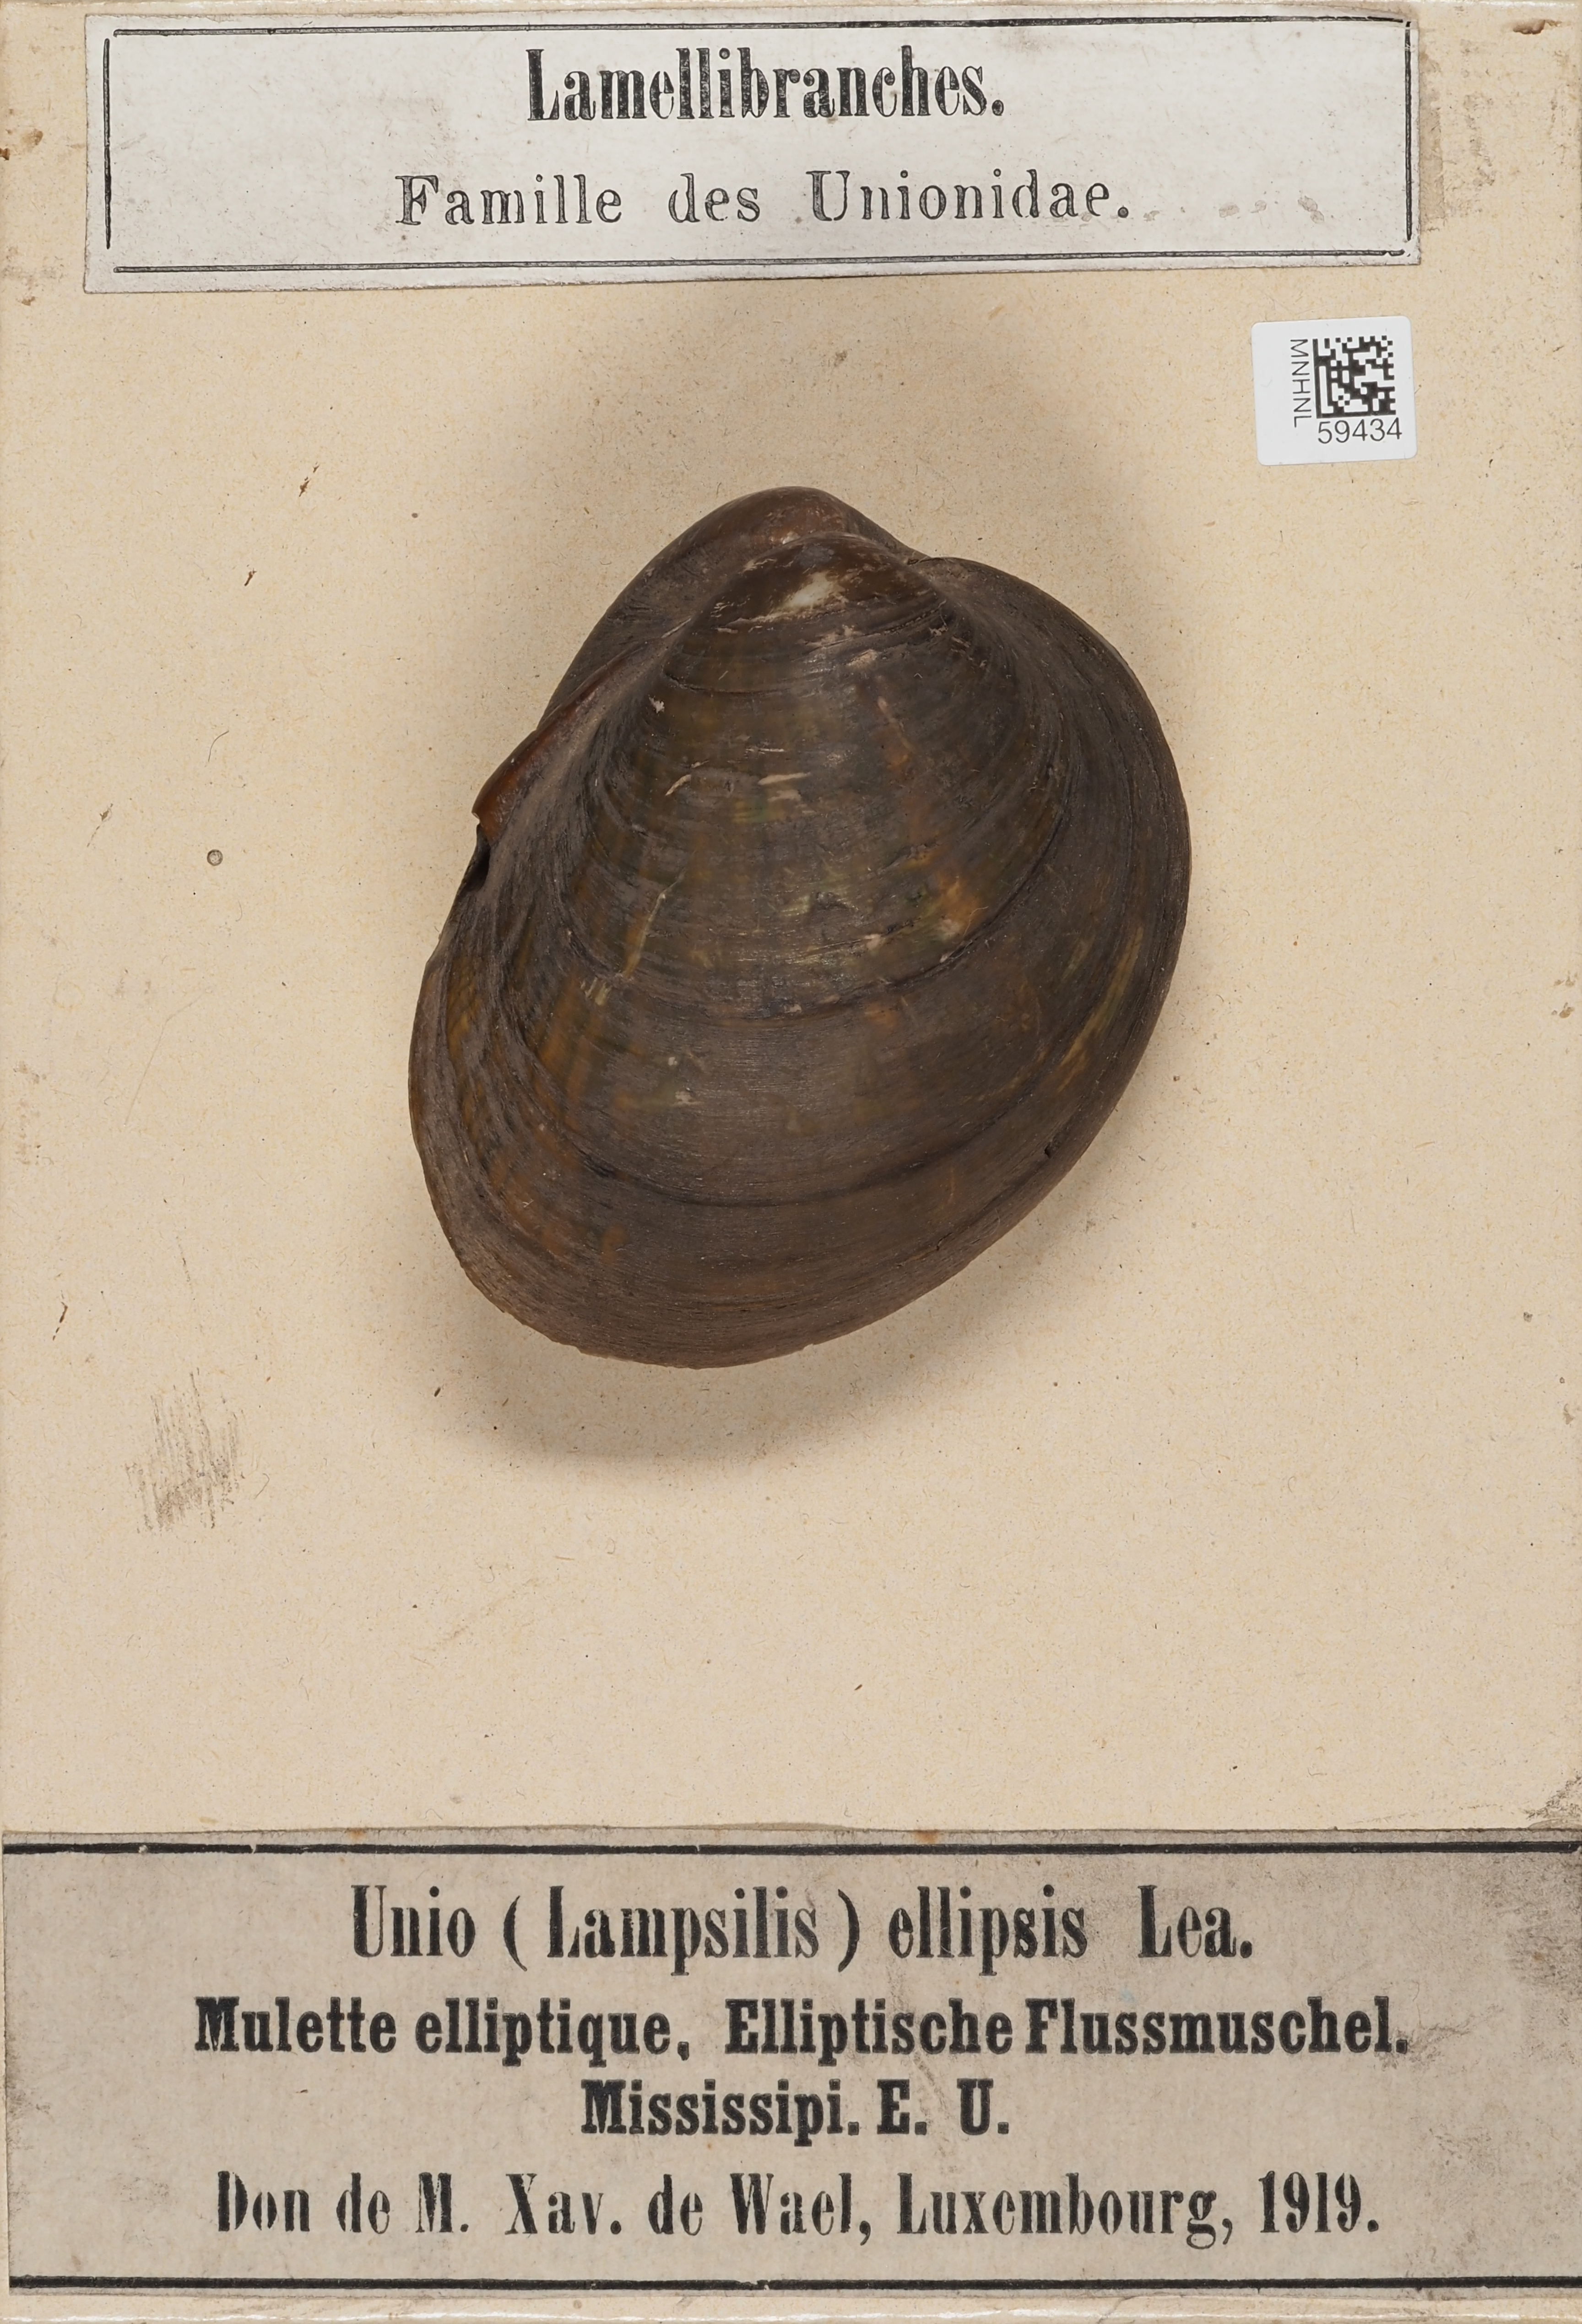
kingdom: Animalia
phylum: Mollusca
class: Bivalvia
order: Unionida
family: Unionidae
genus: Obovaria
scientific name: Obovaria olivaria
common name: Hickorynut
